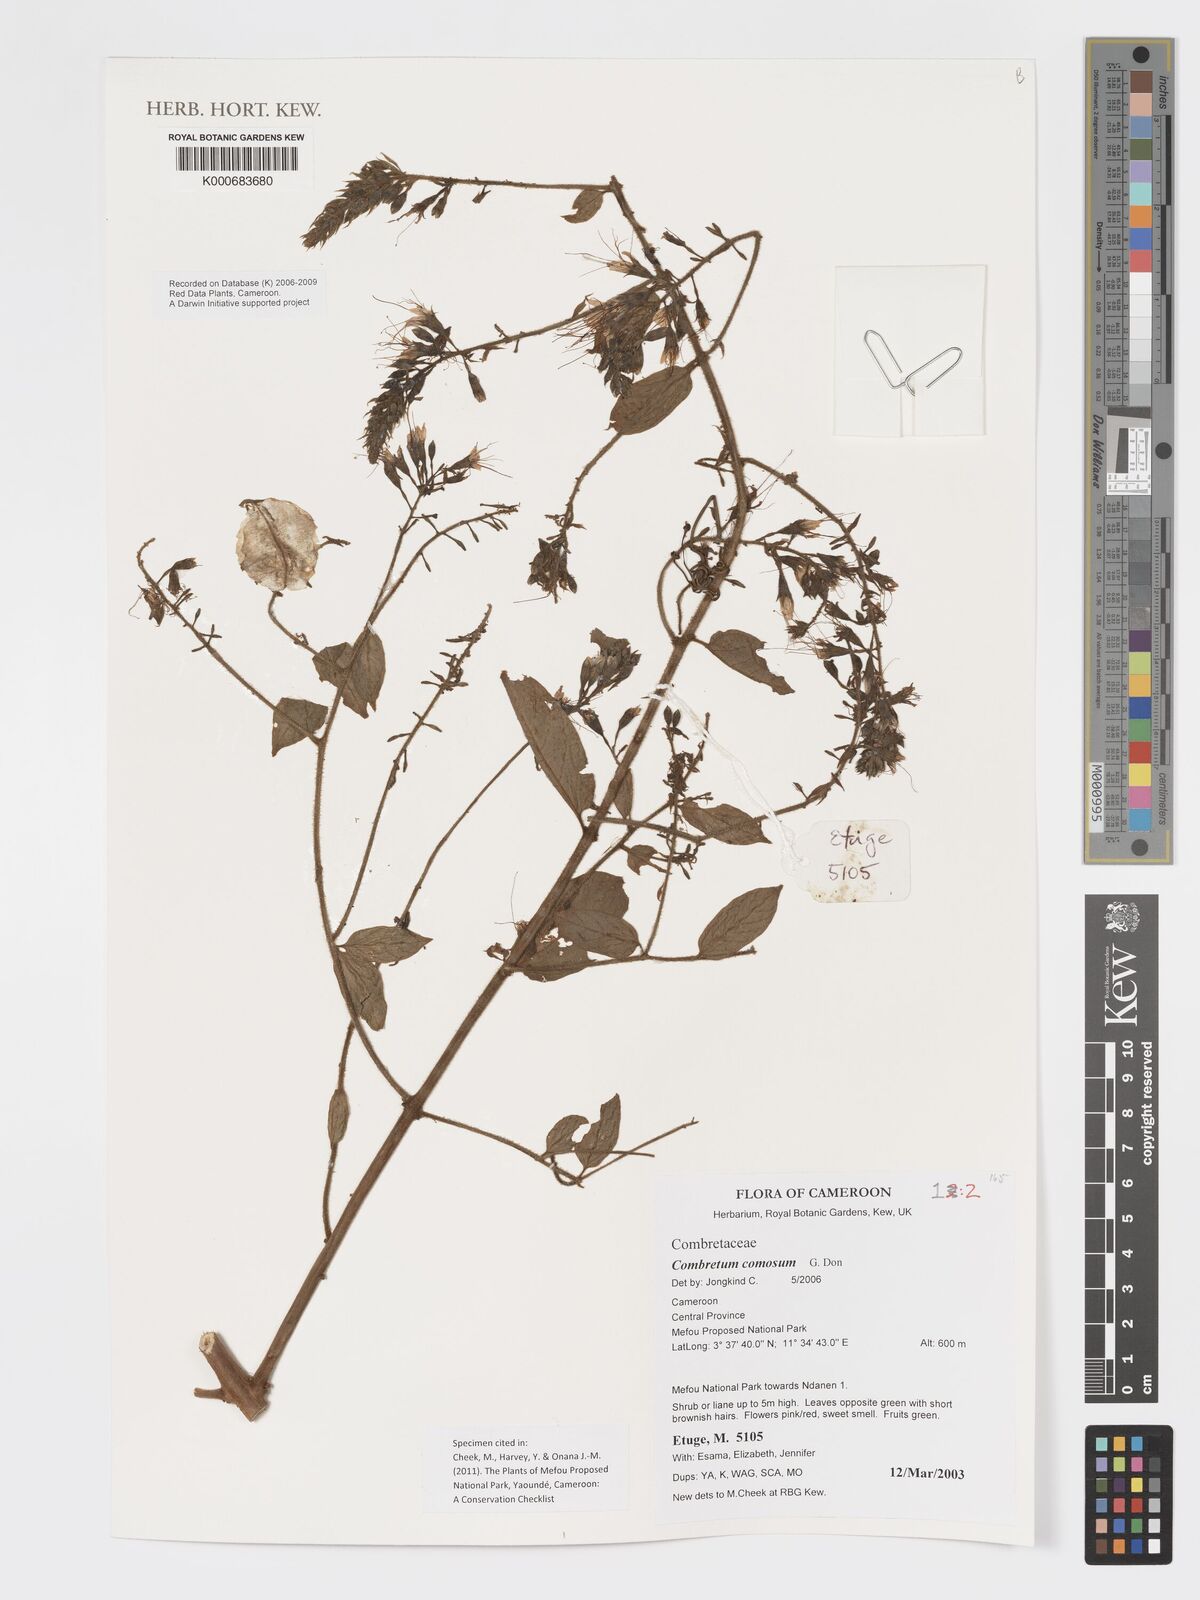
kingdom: Plantae
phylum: Tracheophyta
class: Magnoliopsida
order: Myrtales
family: Combretaceae
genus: Combretum
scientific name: Combretum comosum
